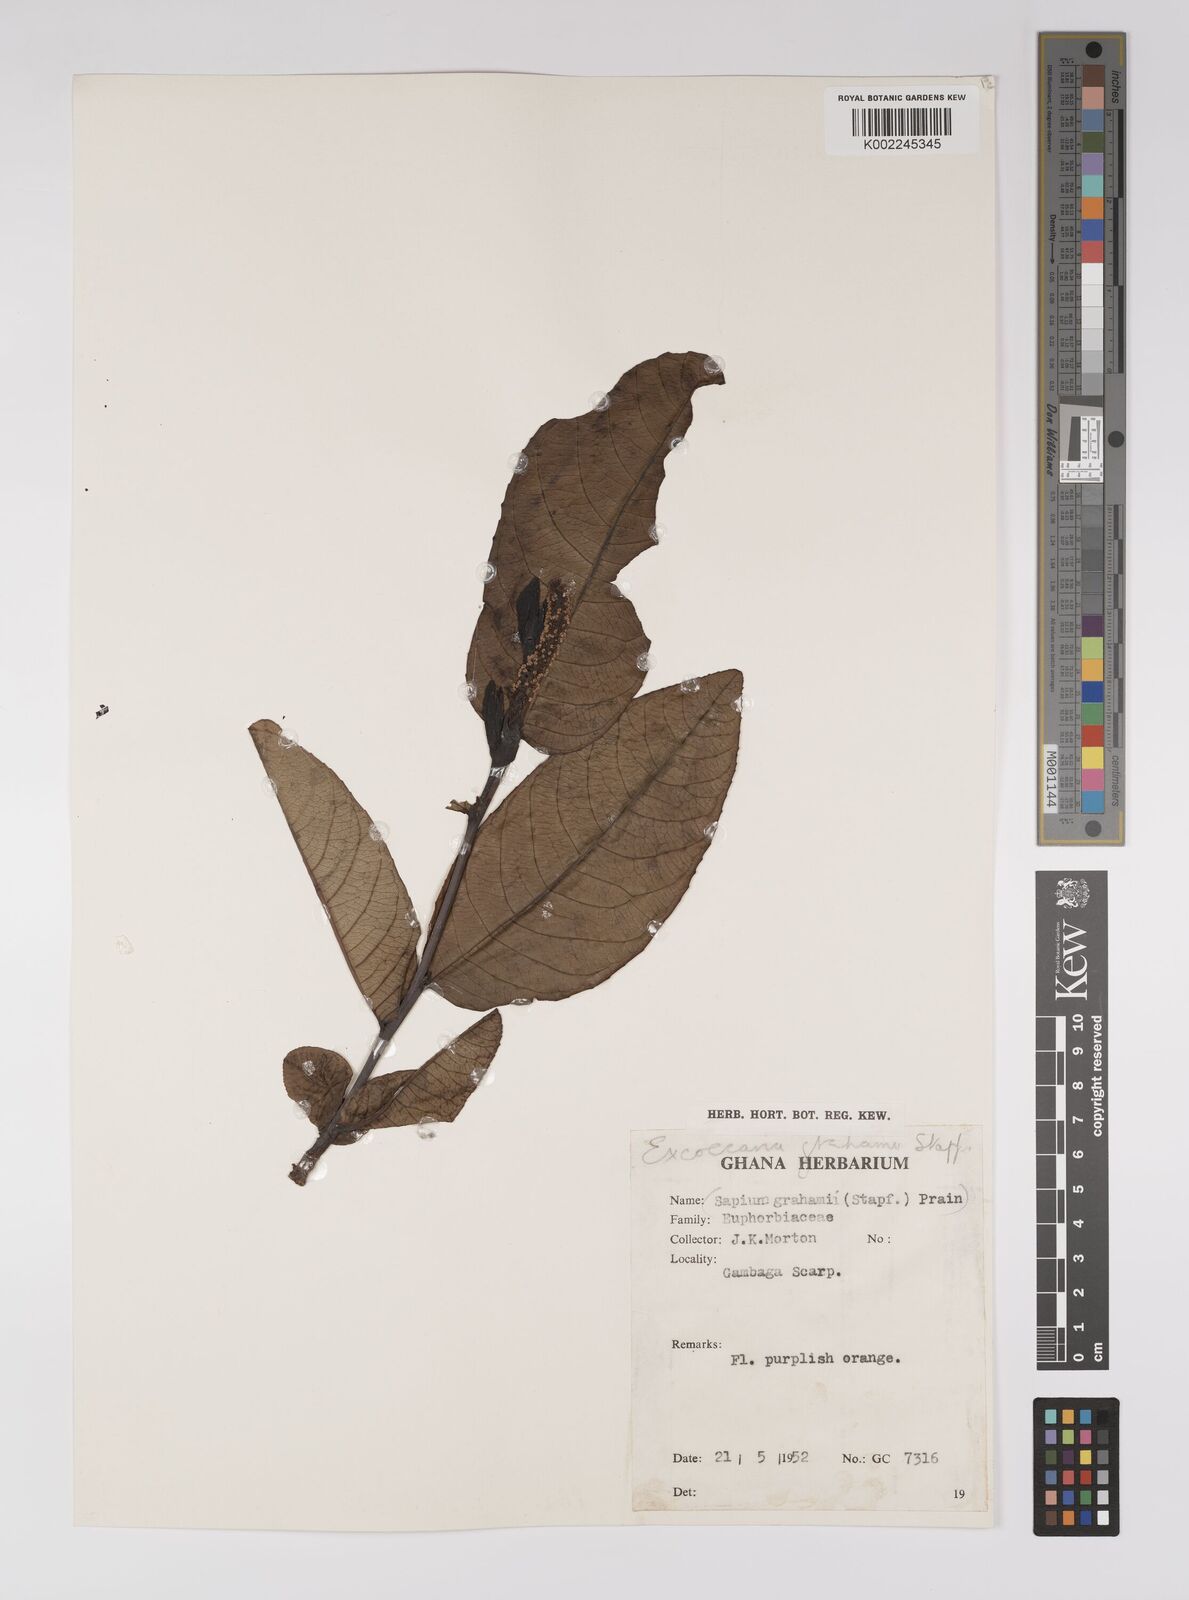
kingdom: Plantae
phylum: Tracheophyta
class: Magnoliopsida
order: Malpighiales
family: Euphorbiaceae
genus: Excoecaria
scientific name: Excoecaria grahamii
